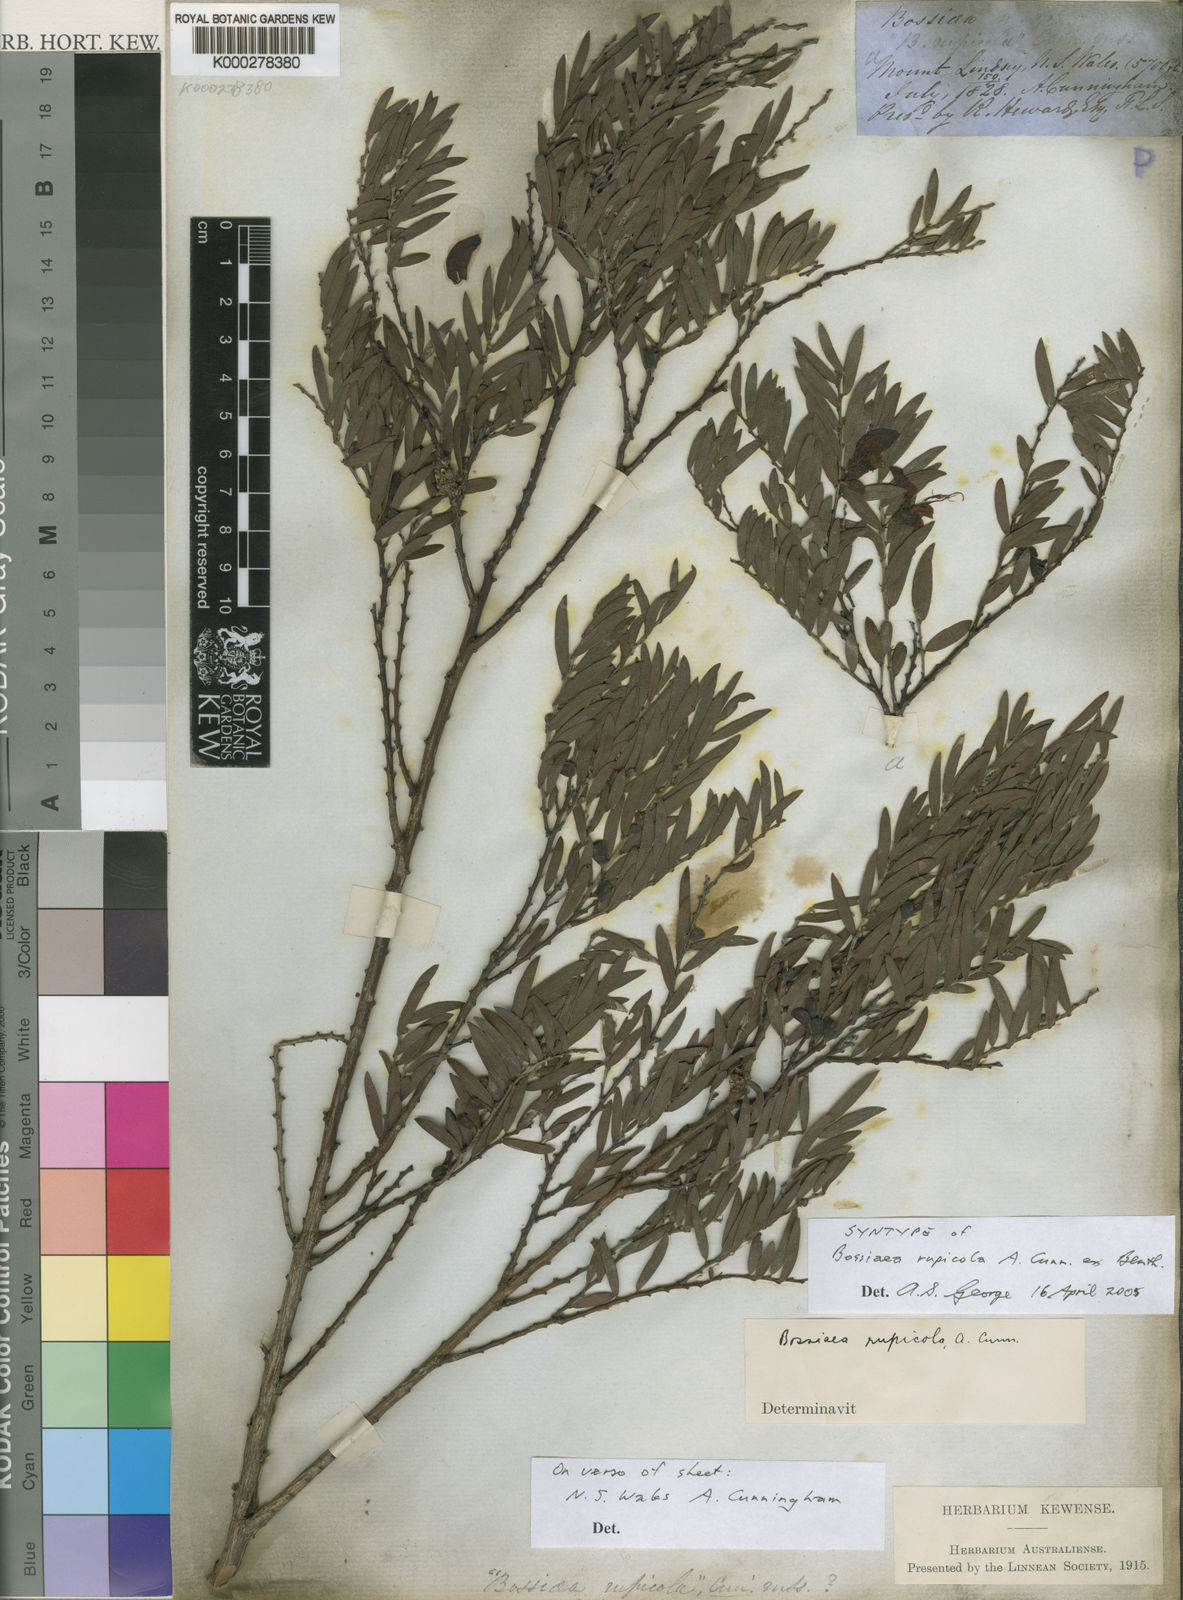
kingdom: Plantae
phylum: Tracheophyta
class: Magnoliopsida
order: Fabales
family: Fabaceae
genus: Bossiaea
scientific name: Bossiaea rupicola
